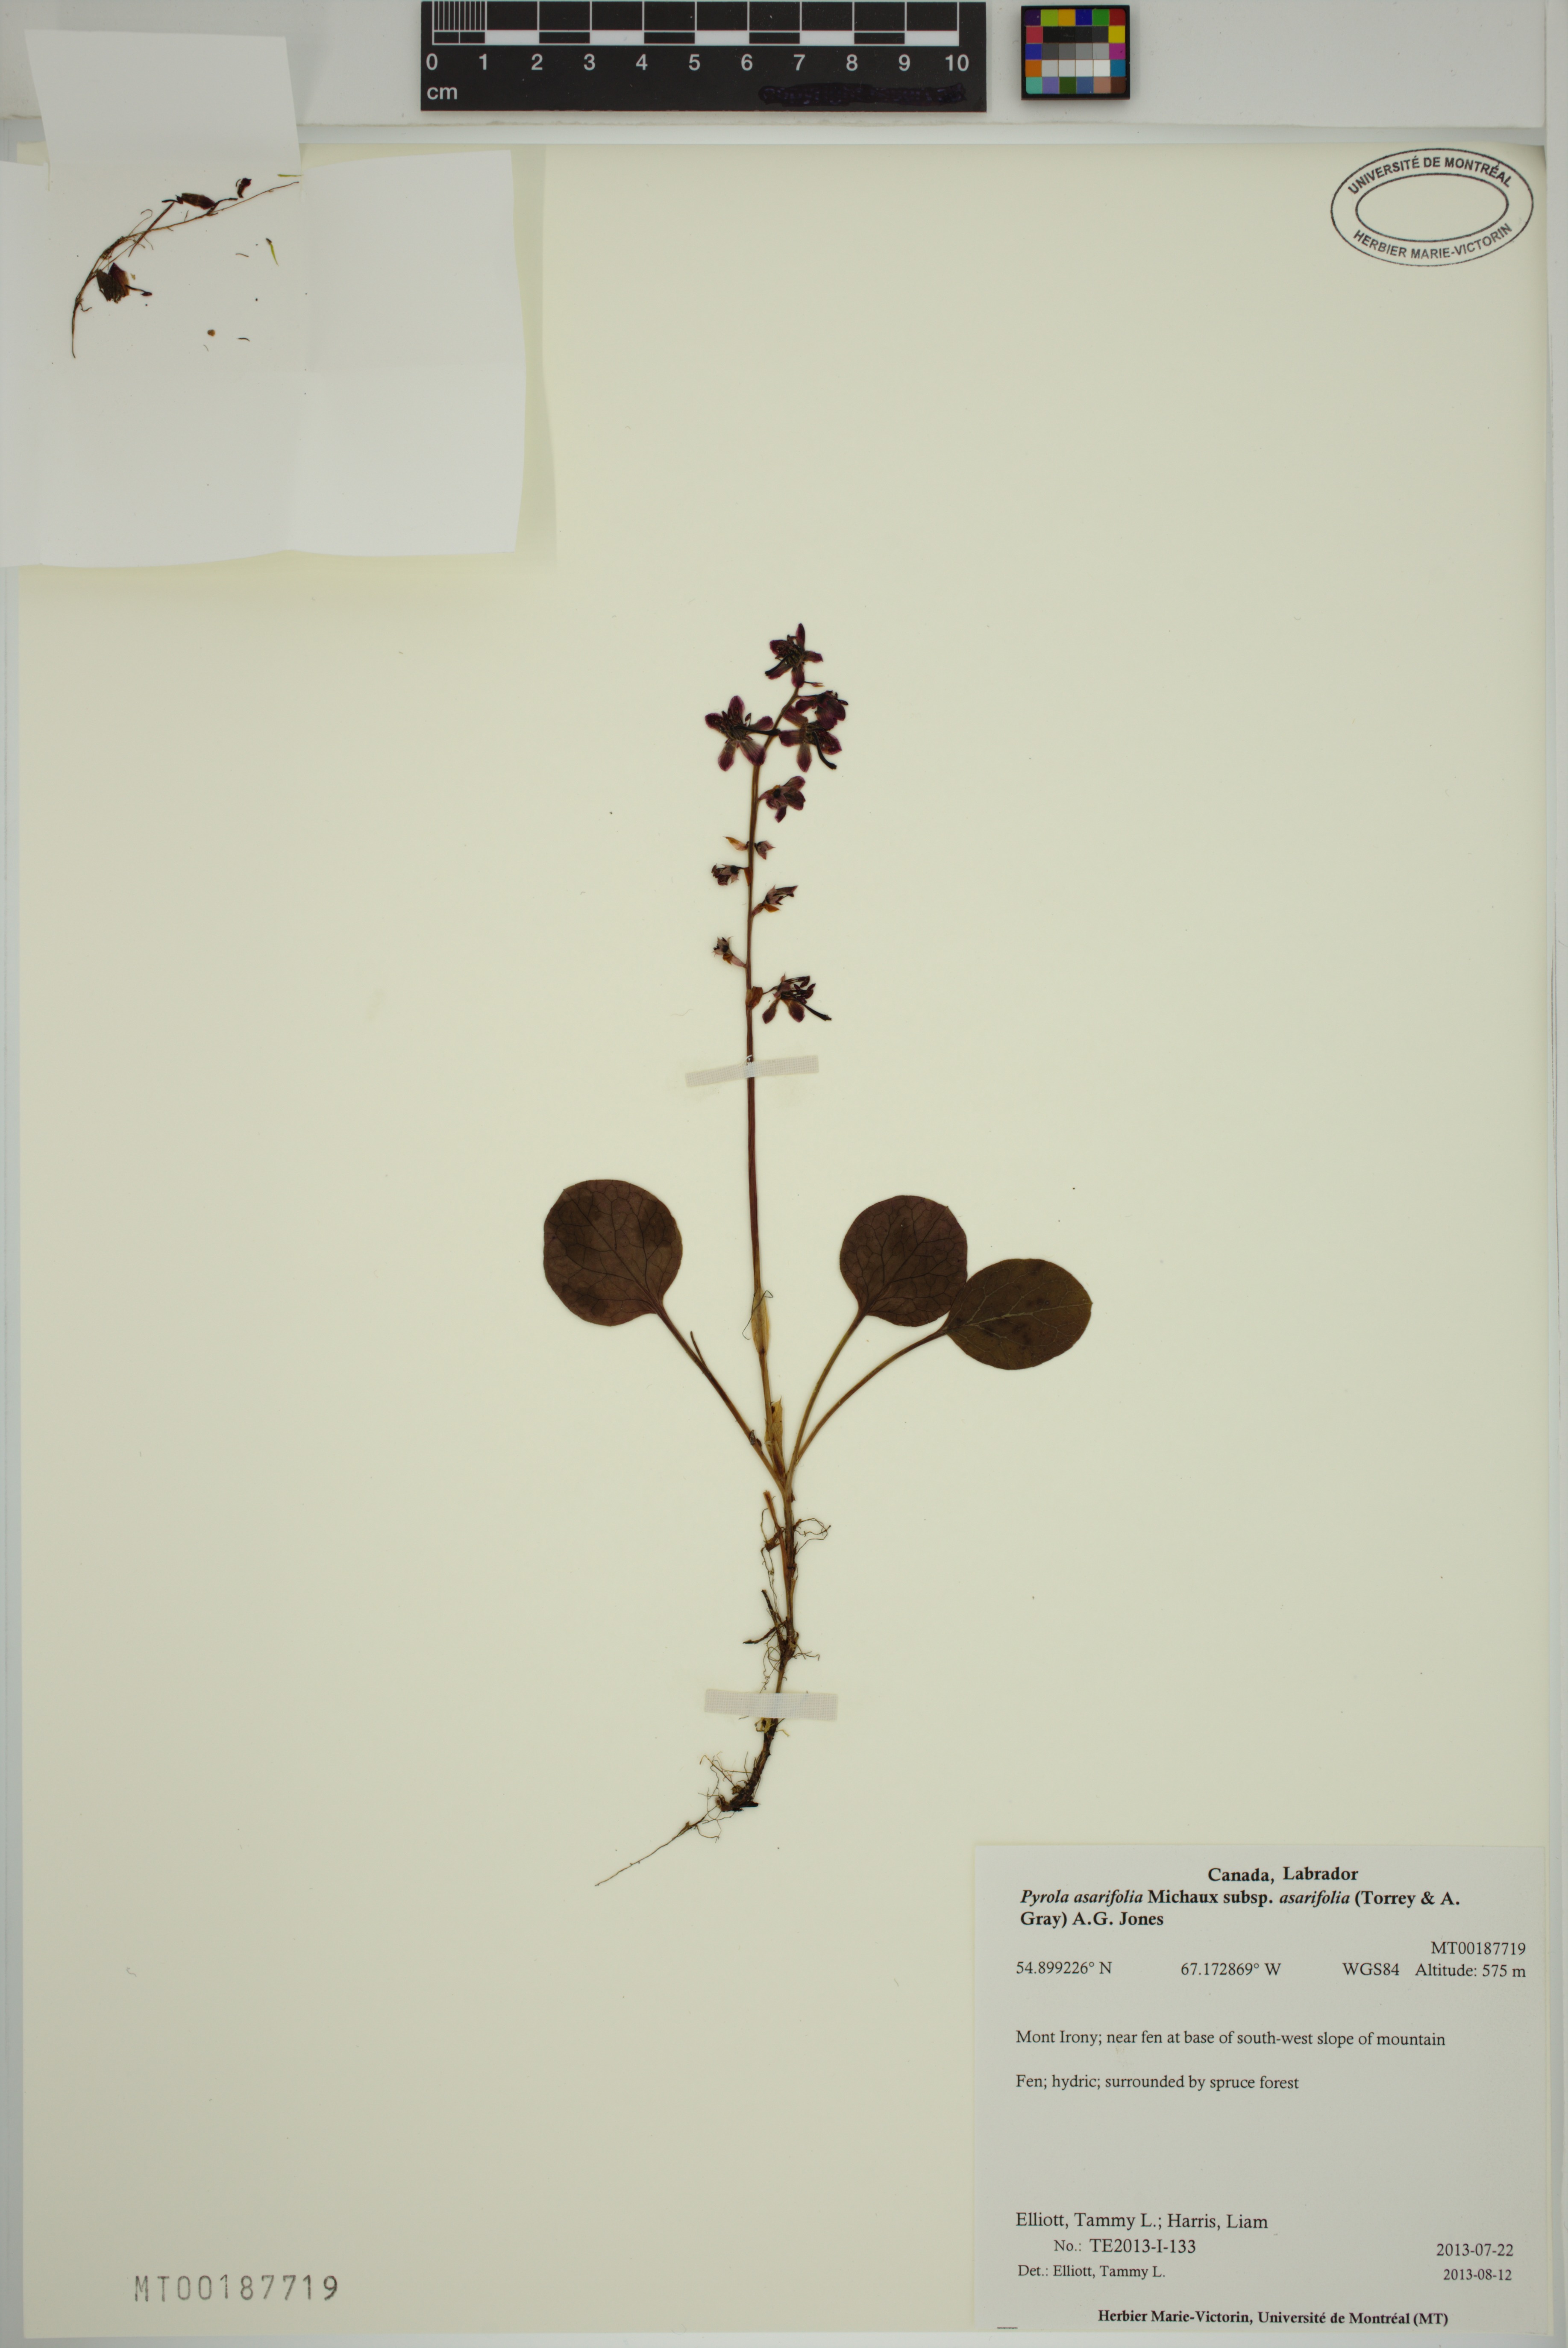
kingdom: Plantae
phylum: Tracheophyta
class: Magnoliopsida
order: Ericales
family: Ericaceae
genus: Pyrola
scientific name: Pyrola asarifolia
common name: Bog wintergreen
